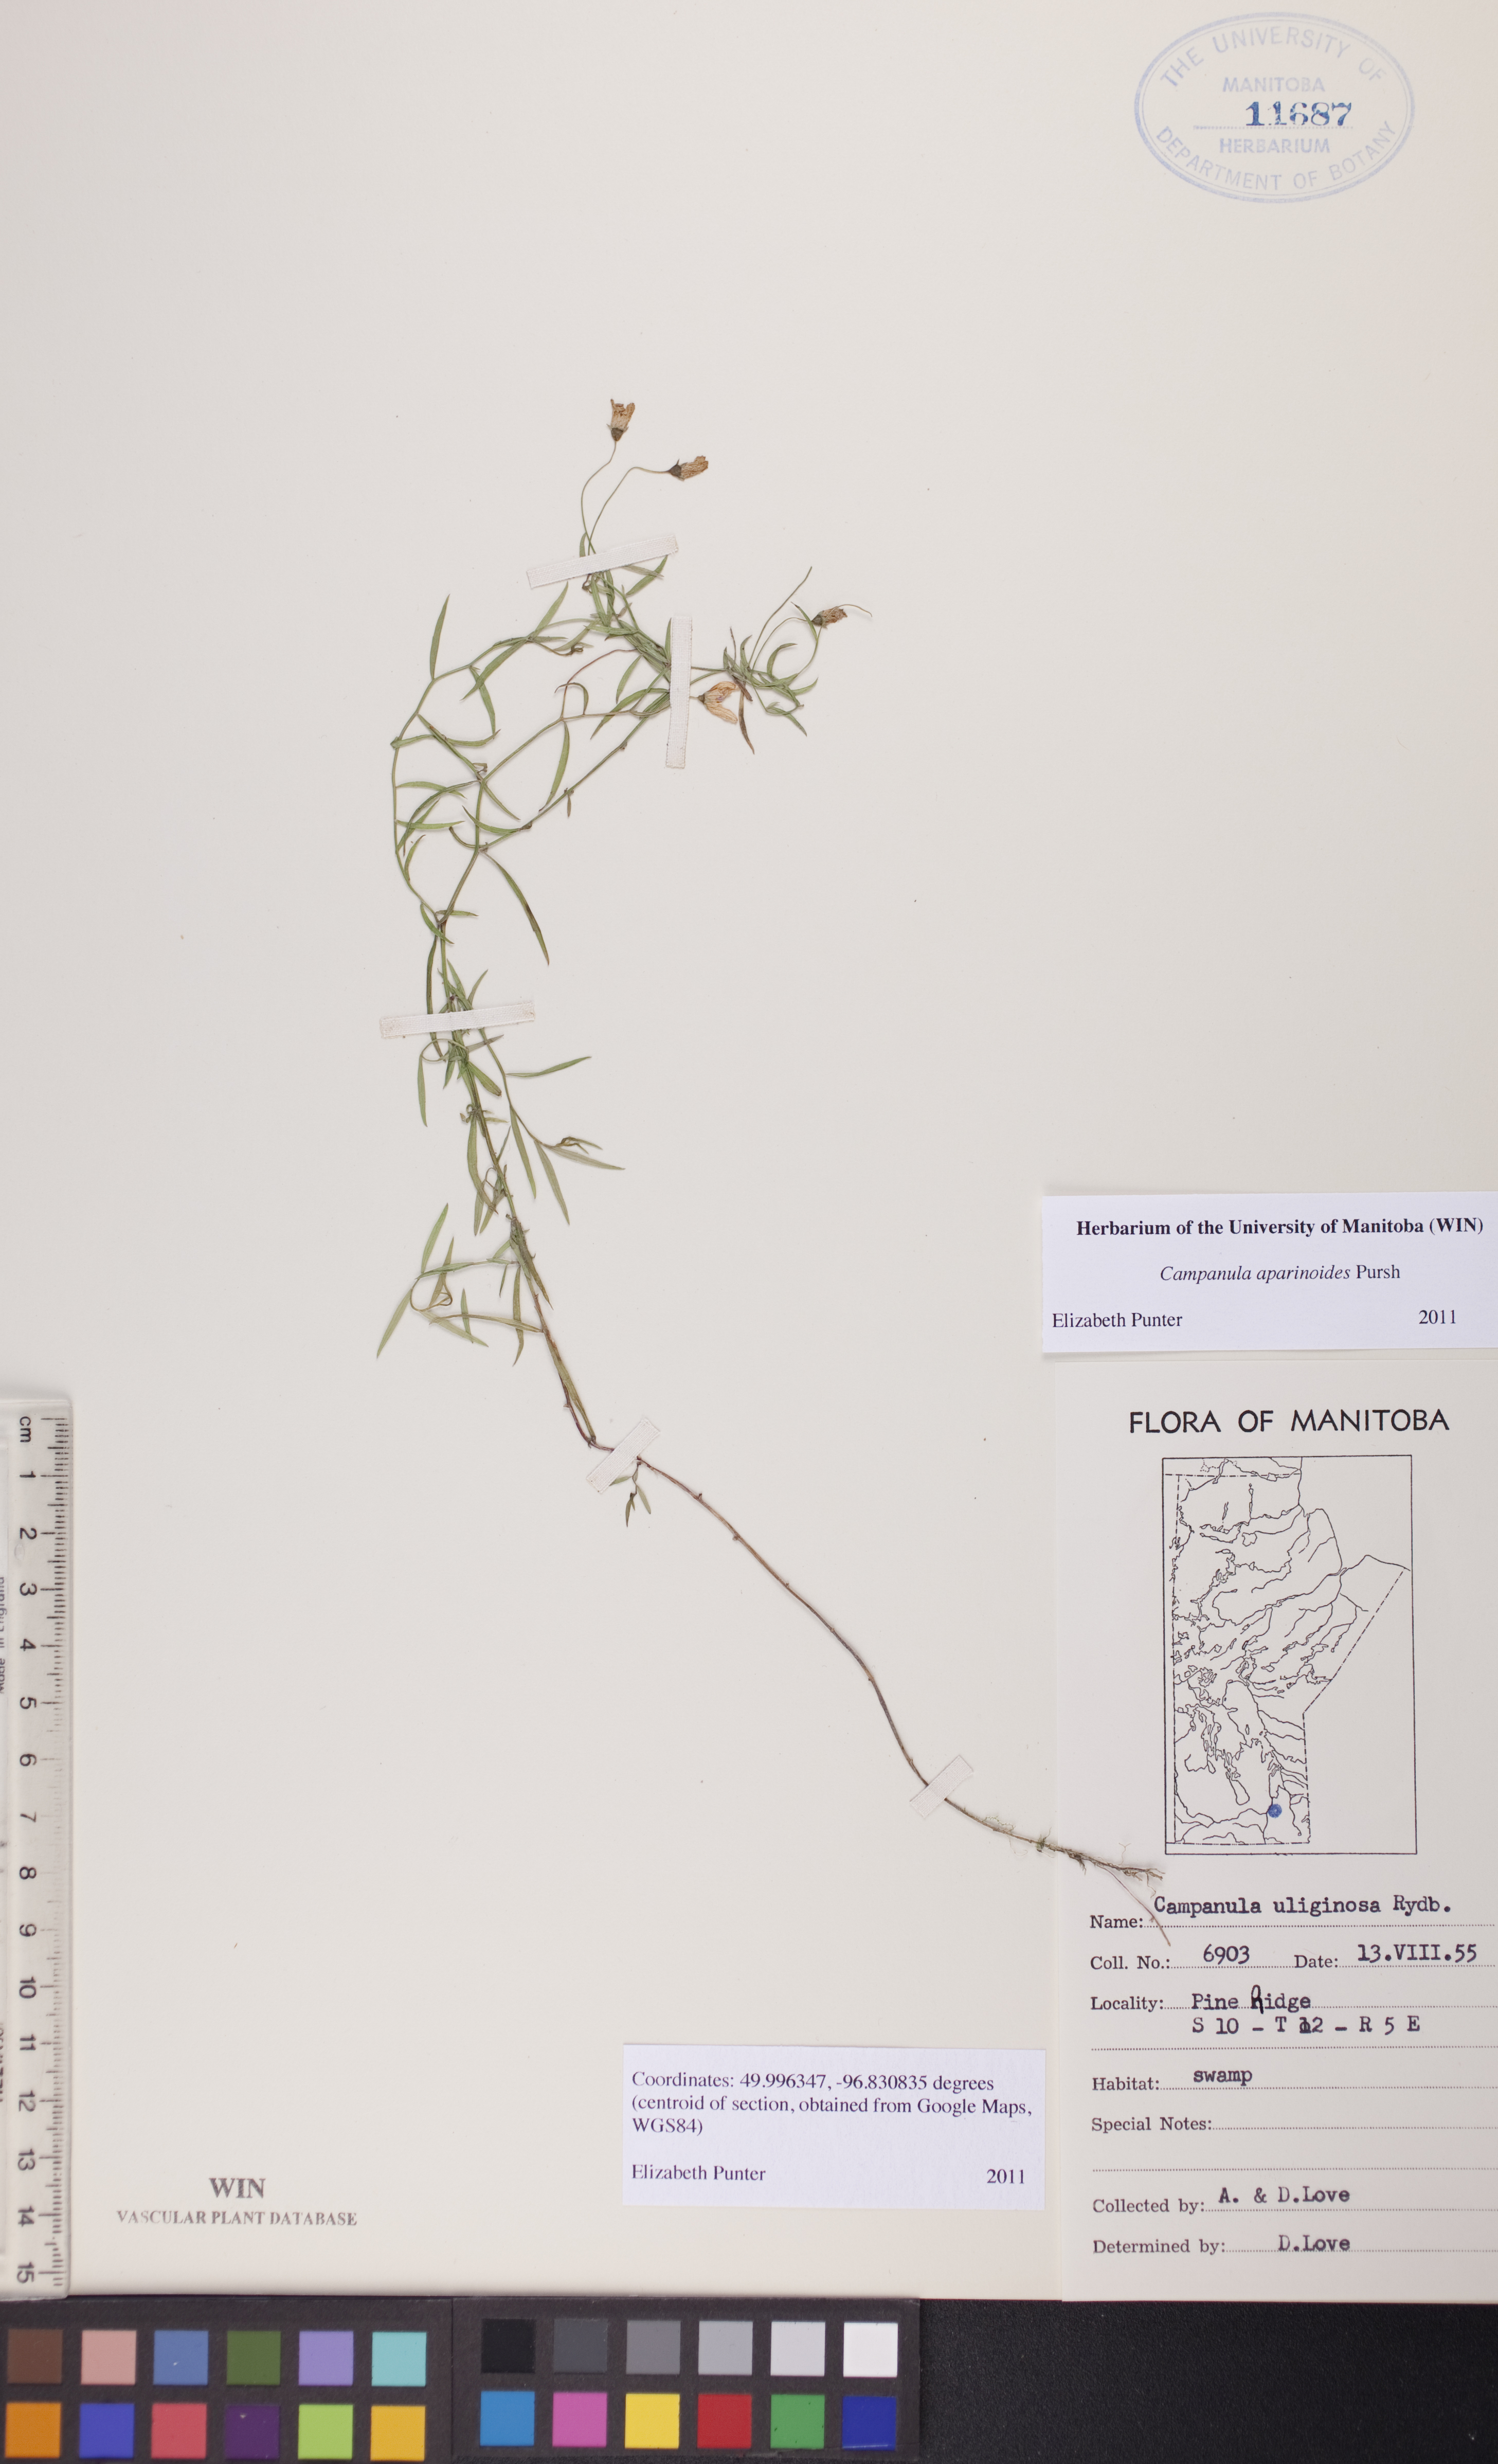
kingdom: Plantae
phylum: Tracheophyta
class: Magnoliopsida
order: Asterales
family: Campanulaceae
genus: Palustricodon
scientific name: Palustricodon aparinoides
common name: Bedstraw bellflower
